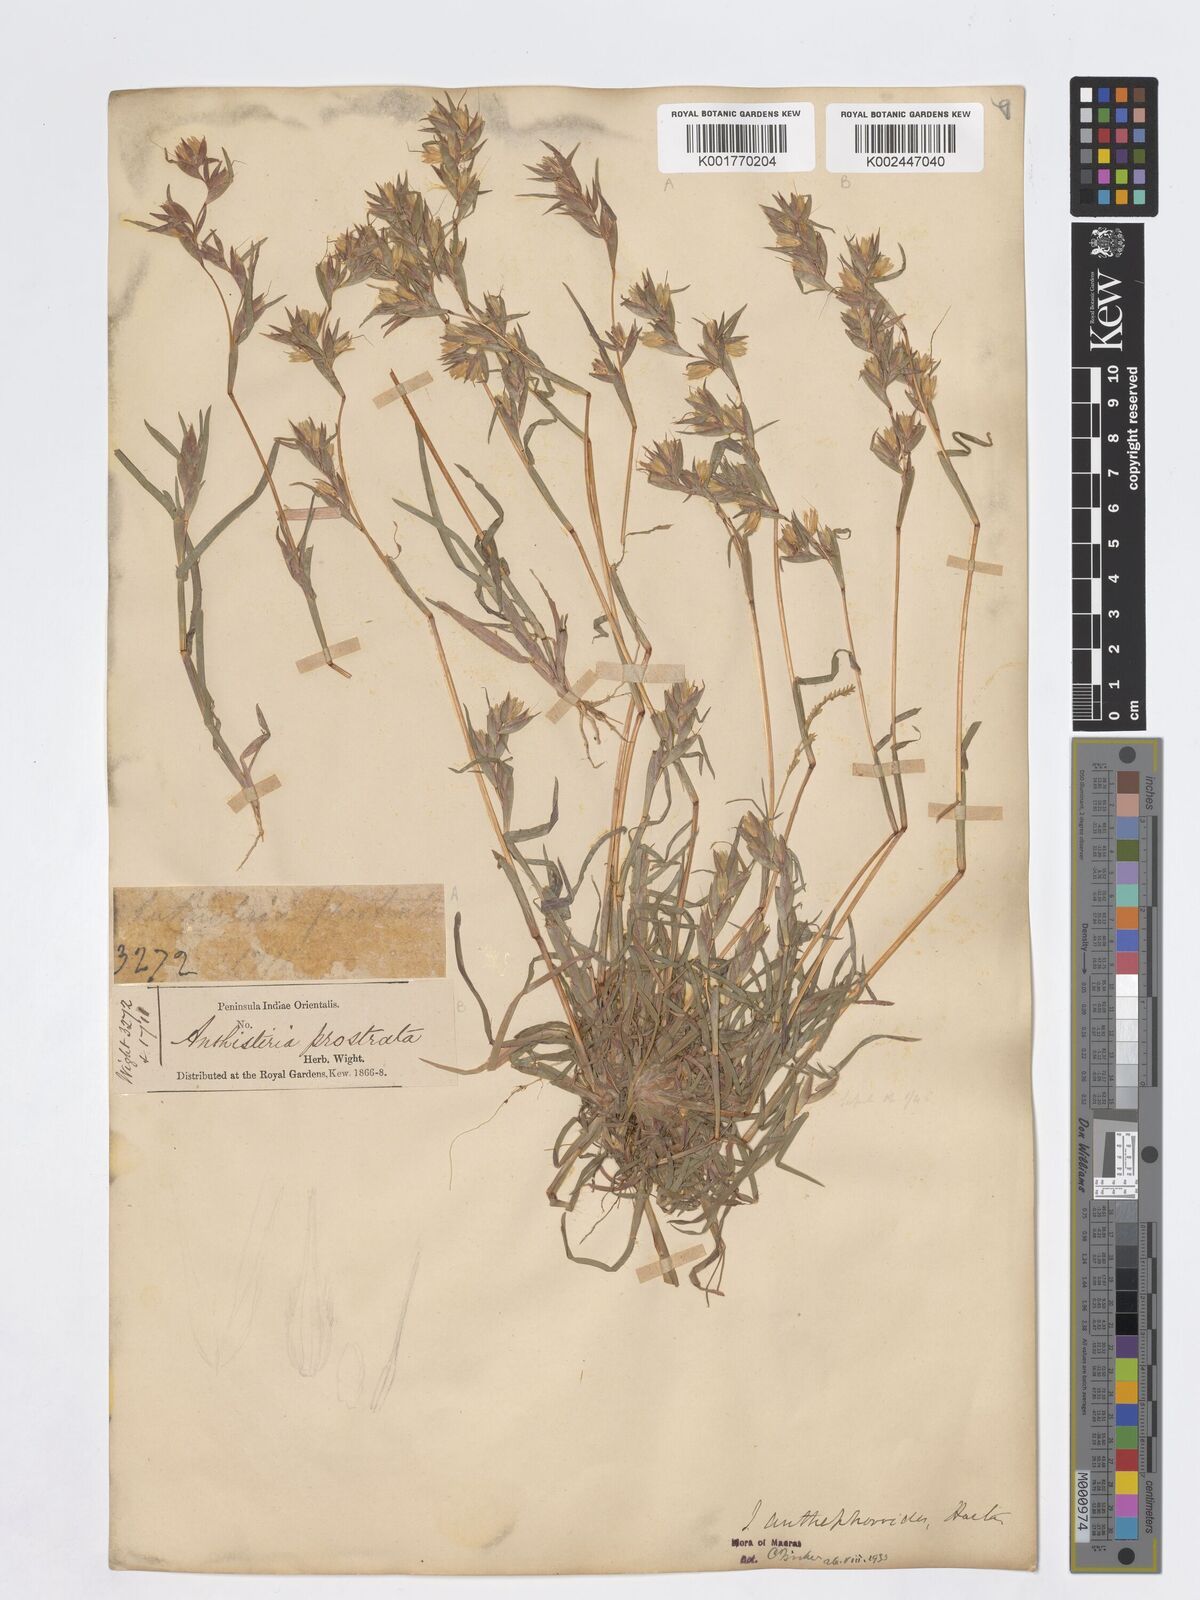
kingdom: Plantae
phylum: Tracheophyta
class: Liliopsida
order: Poales
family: Poaceae
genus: Iseilema
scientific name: Iseilema anthephoroides
